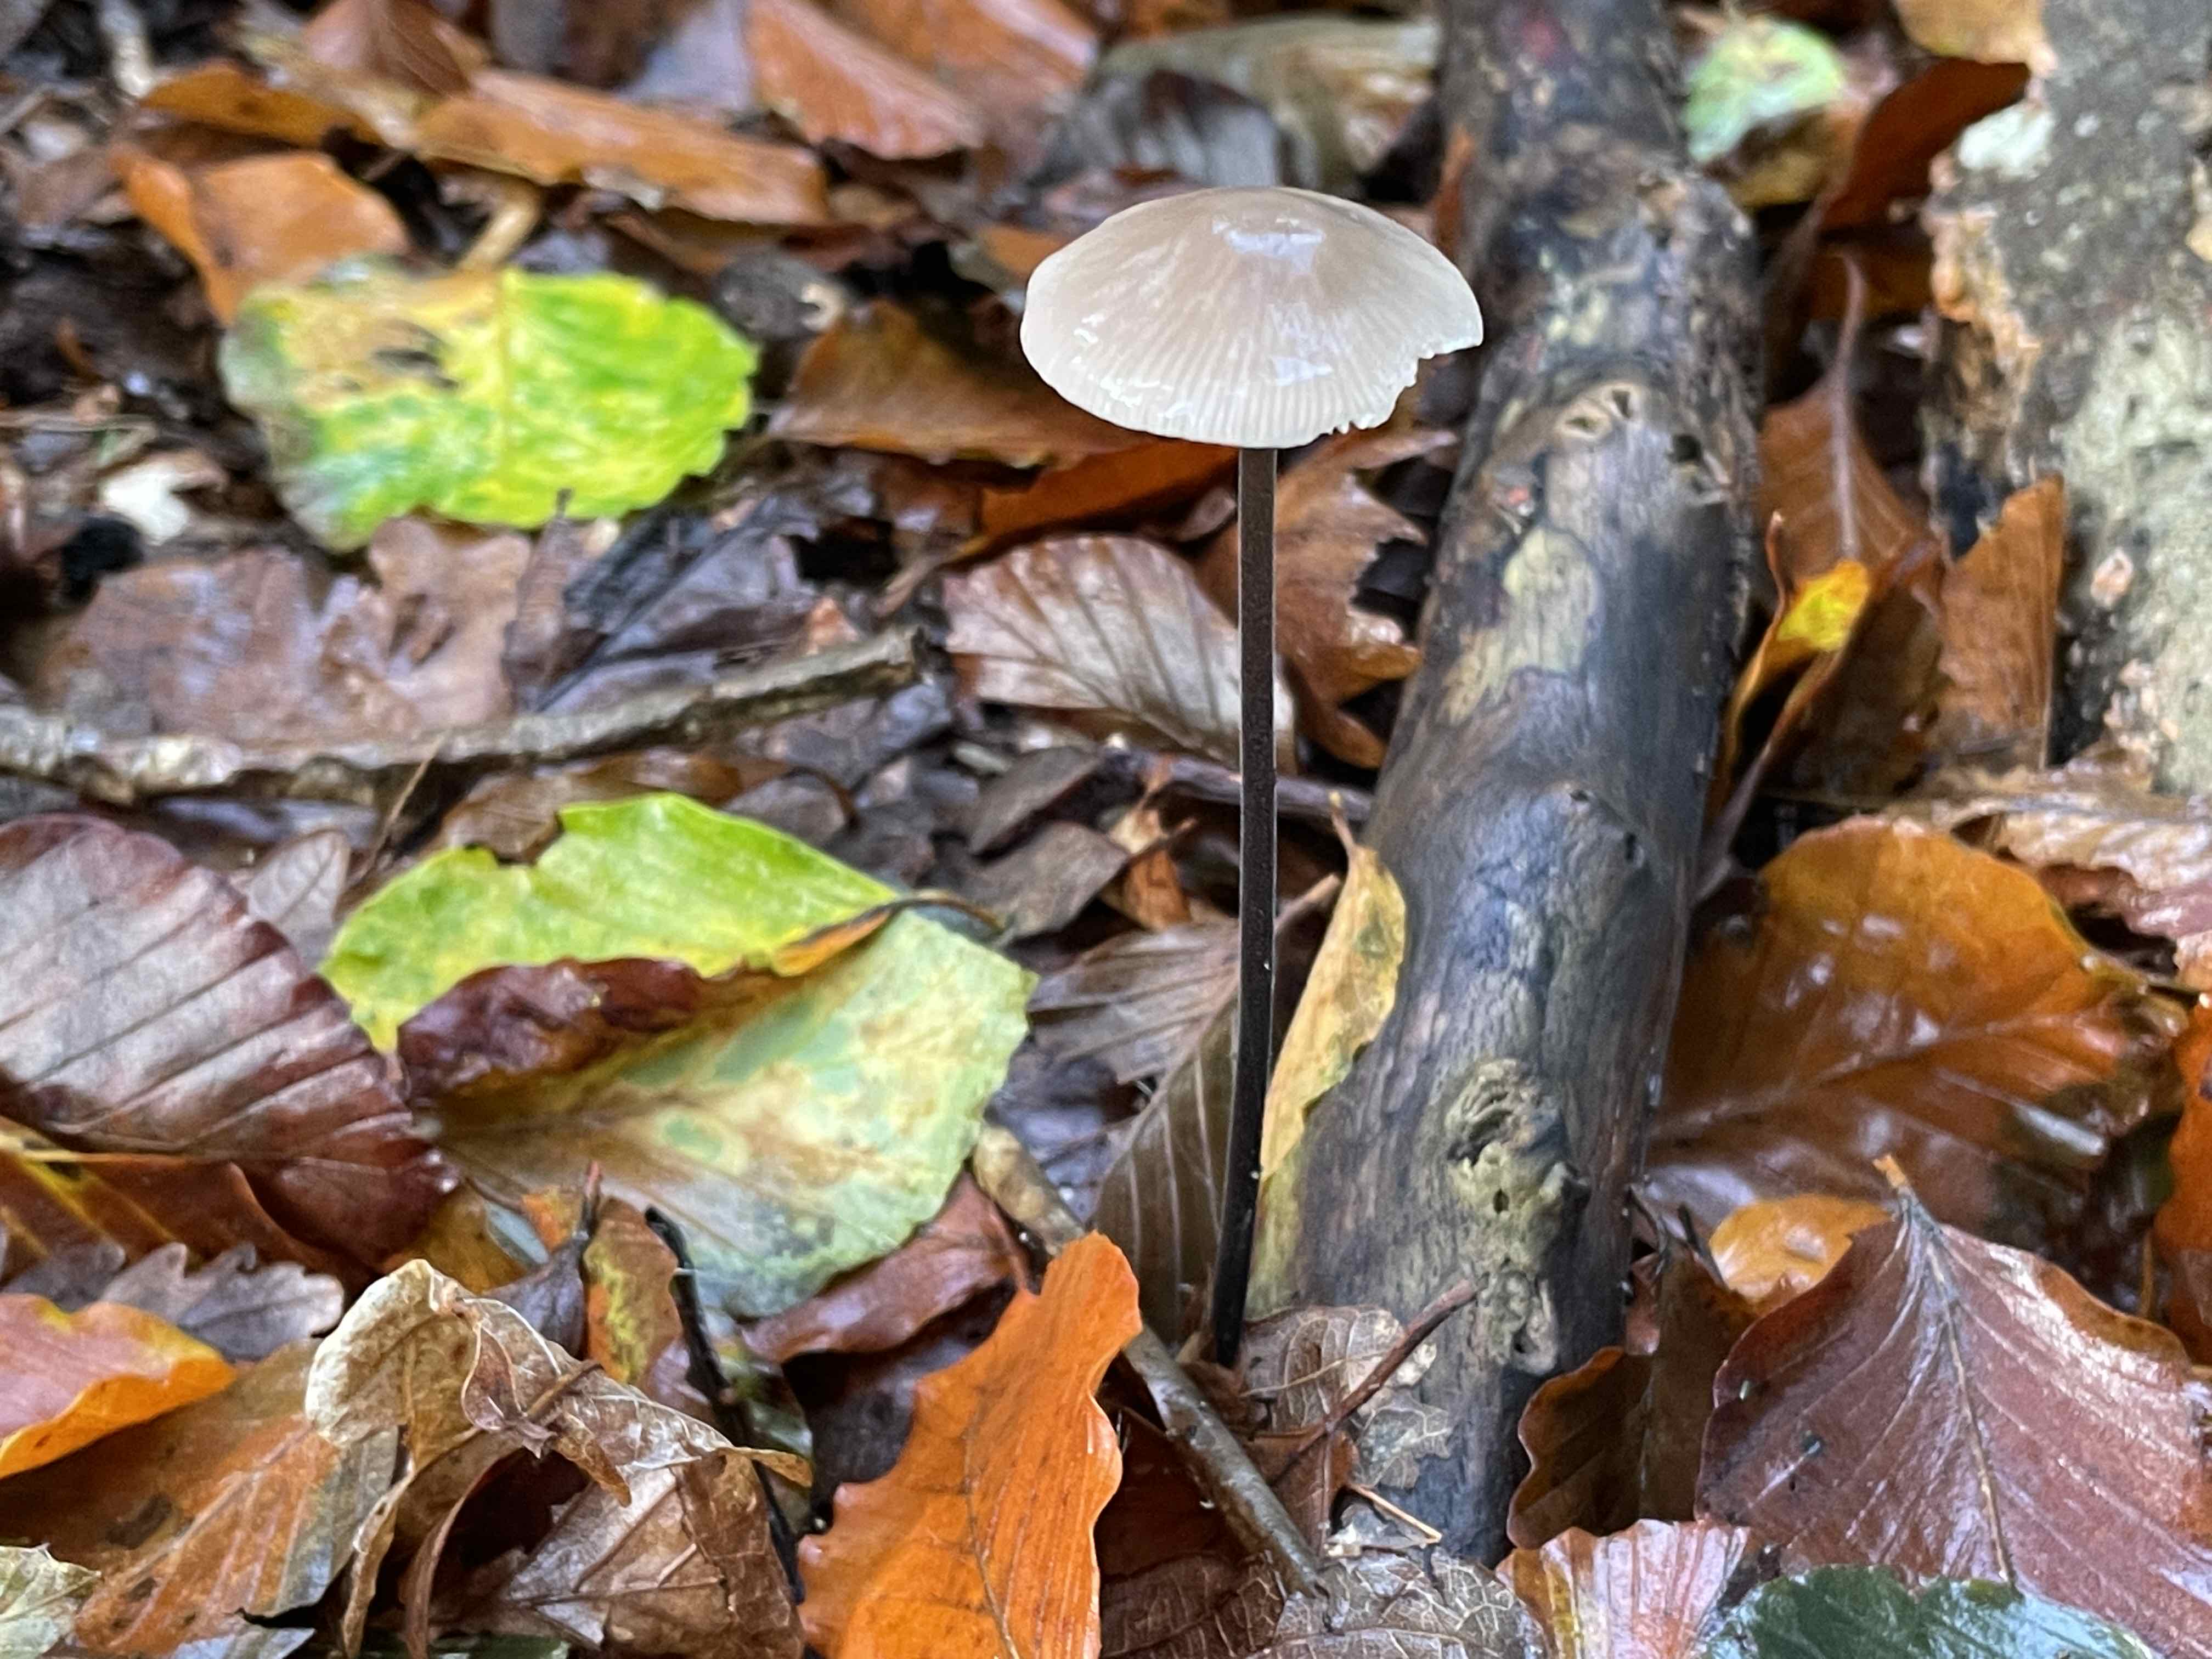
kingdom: Fungi
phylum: Basidiomycota
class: Agaricomycetes
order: Agaricales
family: Omphalotaceae
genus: Mycetinis
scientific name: Mycetinis alliaceus
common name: stor løghat
